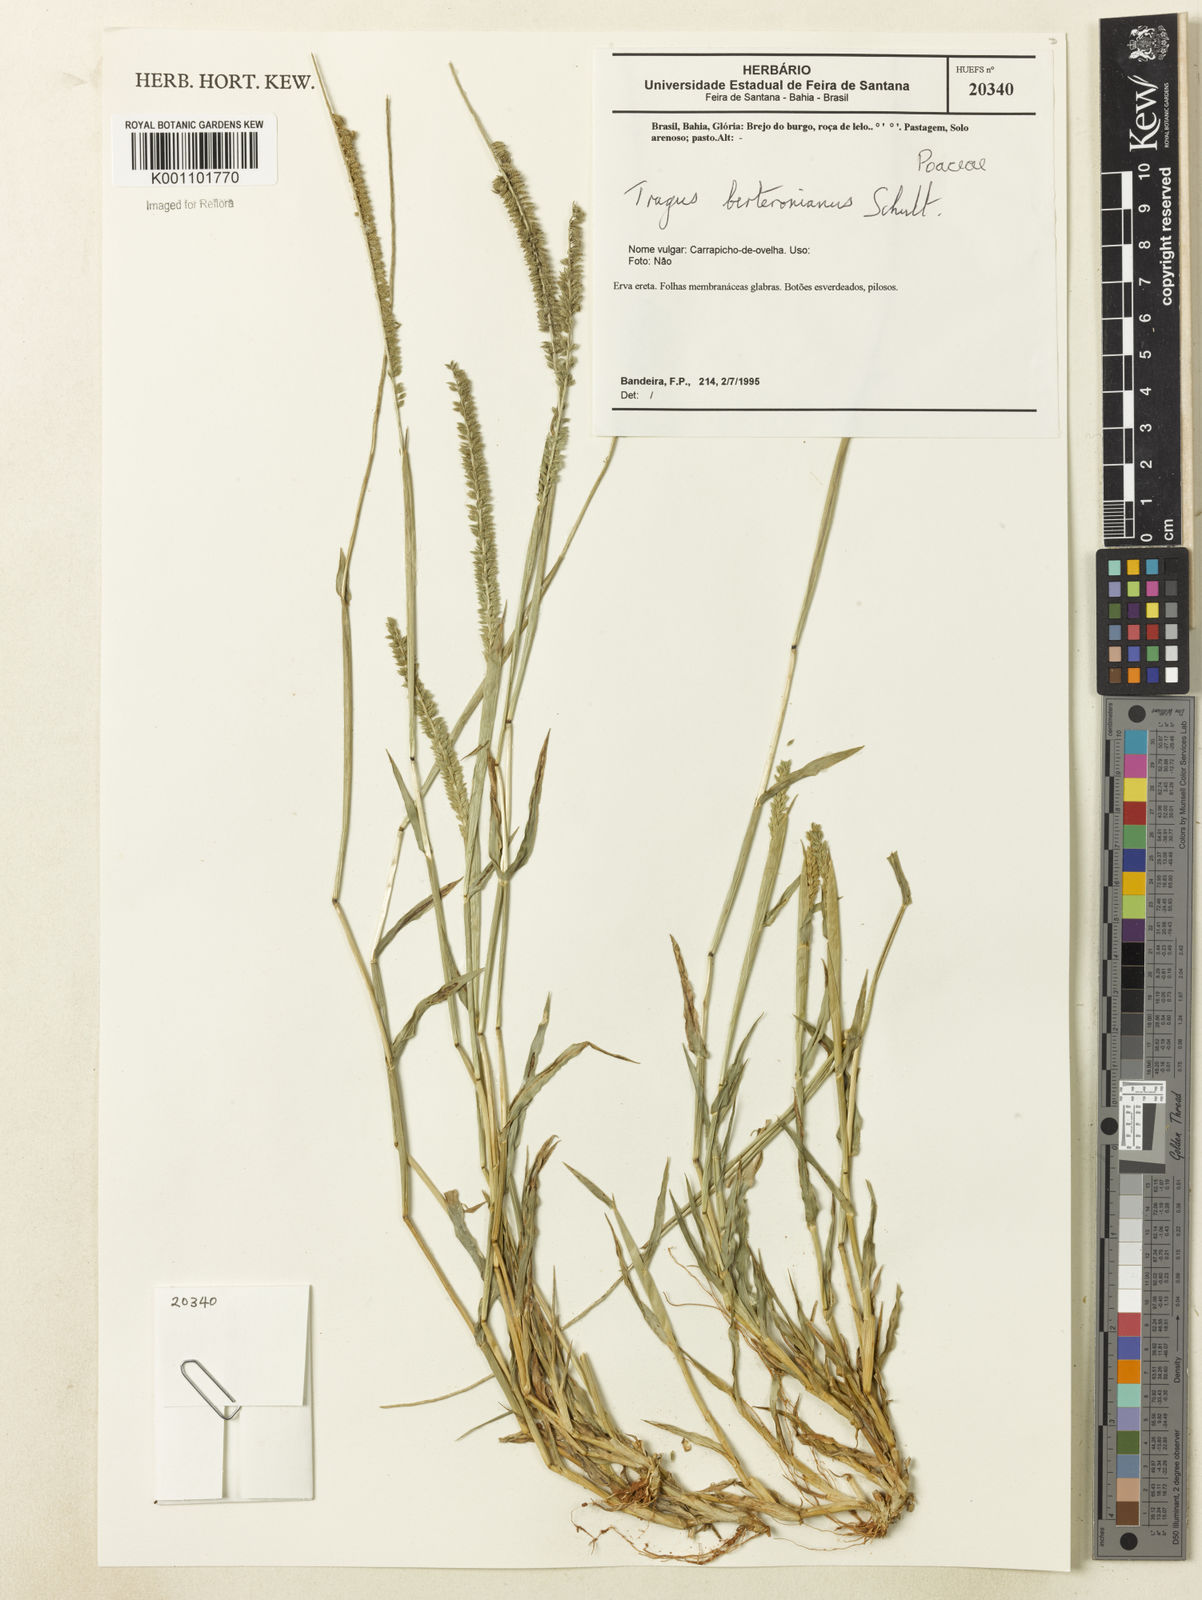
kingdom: Plantae
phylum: Tracheophyta
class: Liliopsida
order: Poales
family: Poaceae
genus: Tragus
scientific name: Tragus berteronianus
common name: African bur-grass
